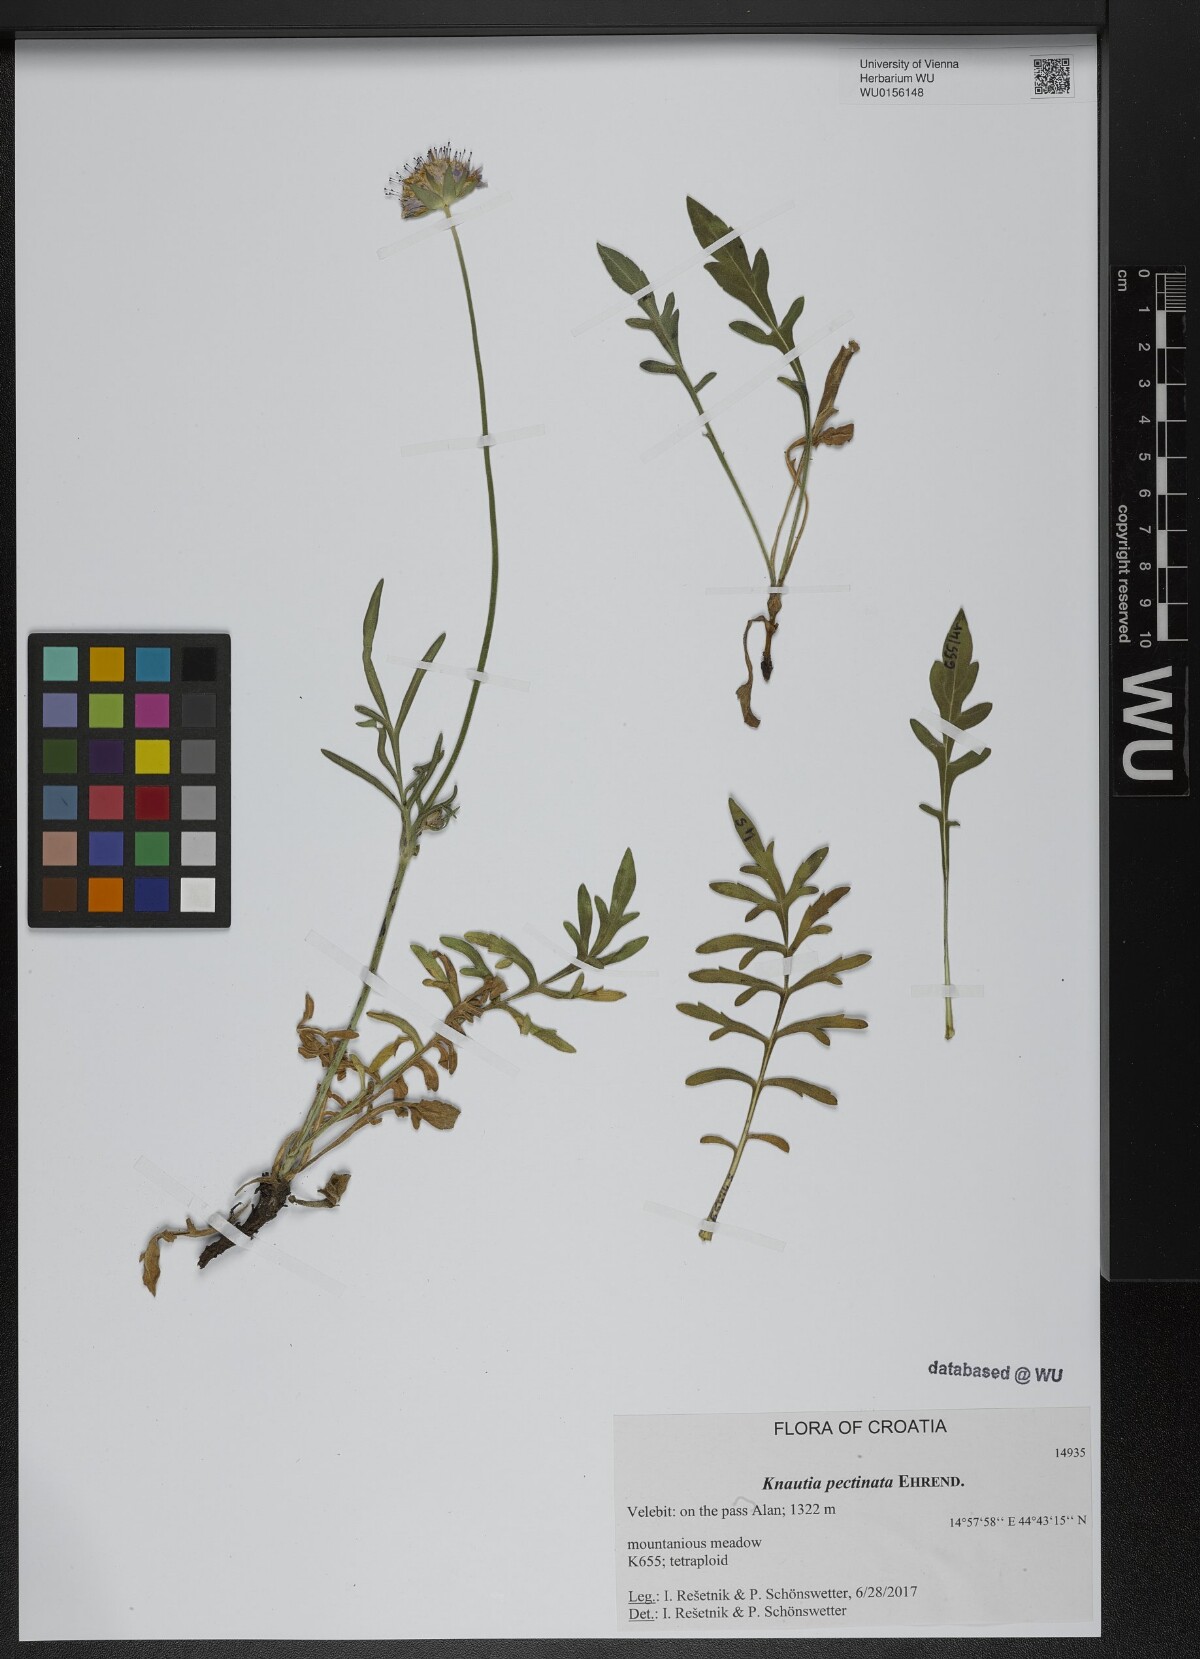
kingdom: Plantae
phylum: Tracheophyta
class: Magnoliopsida
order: Dipsacales
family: Caprifoliaceae
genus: Knautia
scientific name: Knautia pectinata
